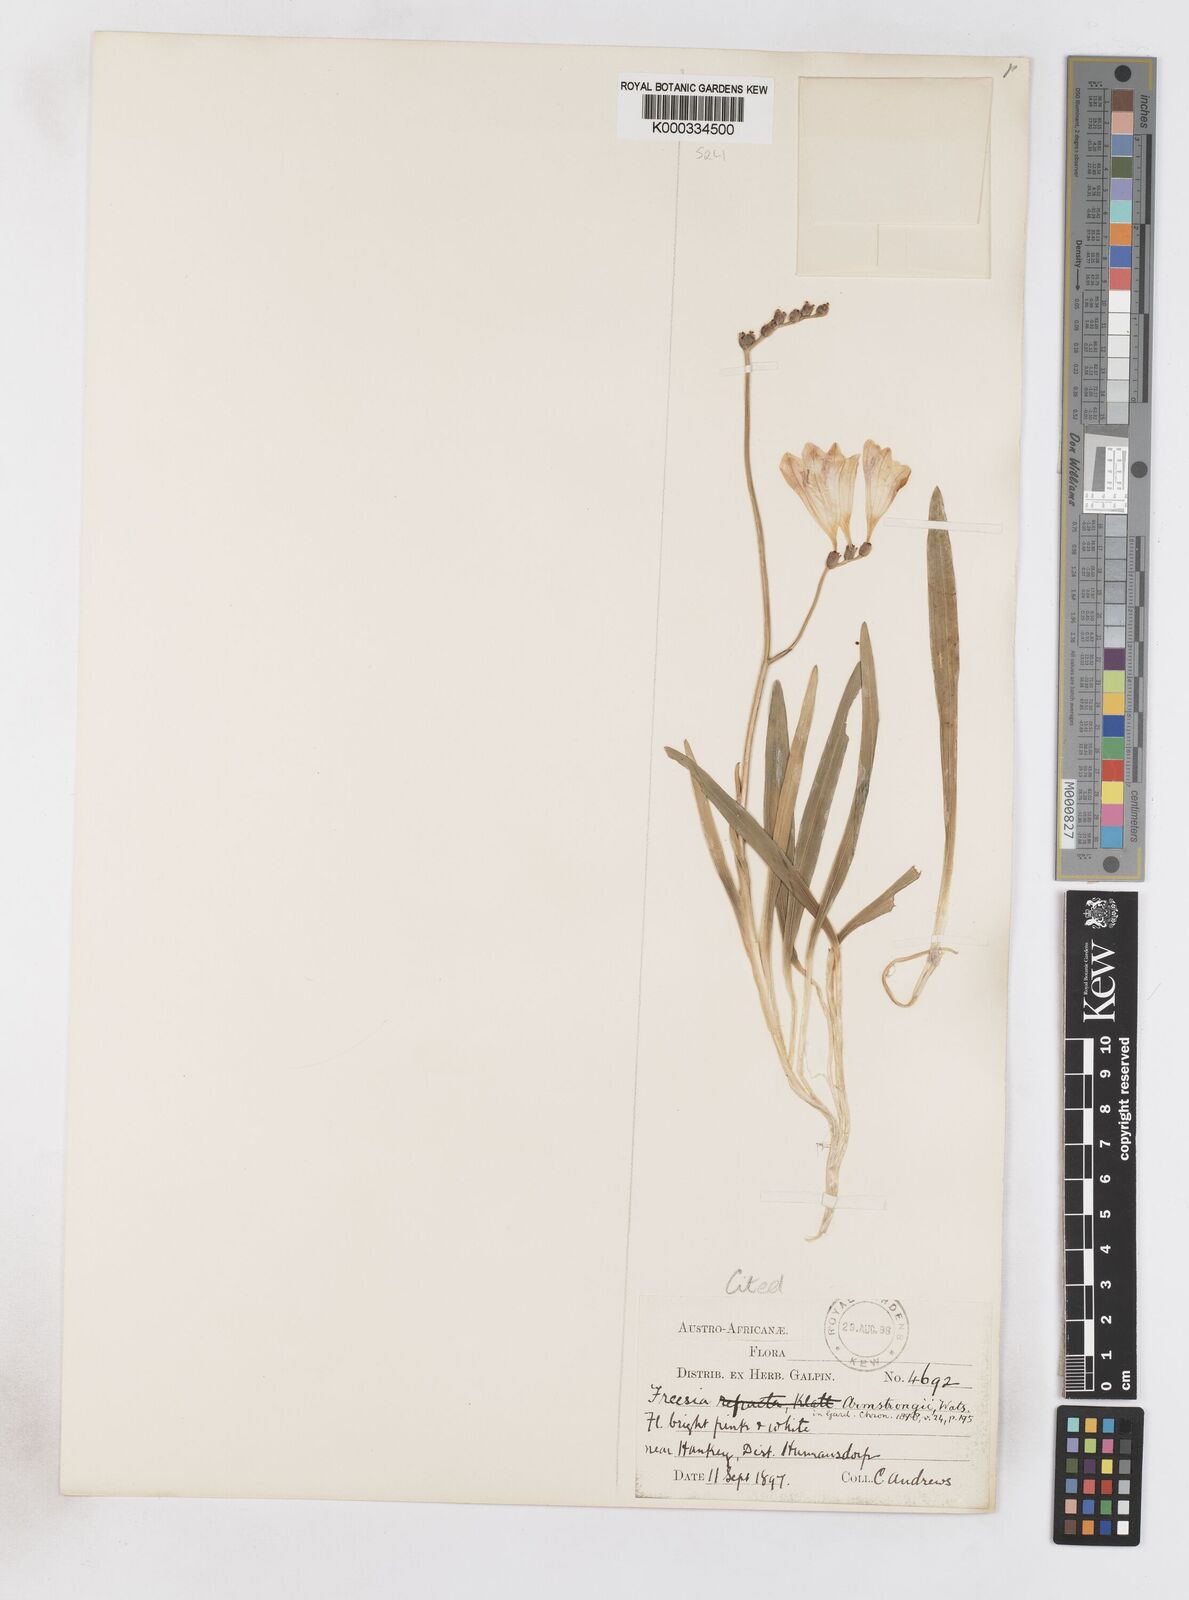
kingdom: Plantae
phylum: Tracheophyta
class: Liliopsida
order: Asparagales
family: Iridaceae
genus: Freesia
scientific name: Freesia corymbosa
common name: Common freesia
